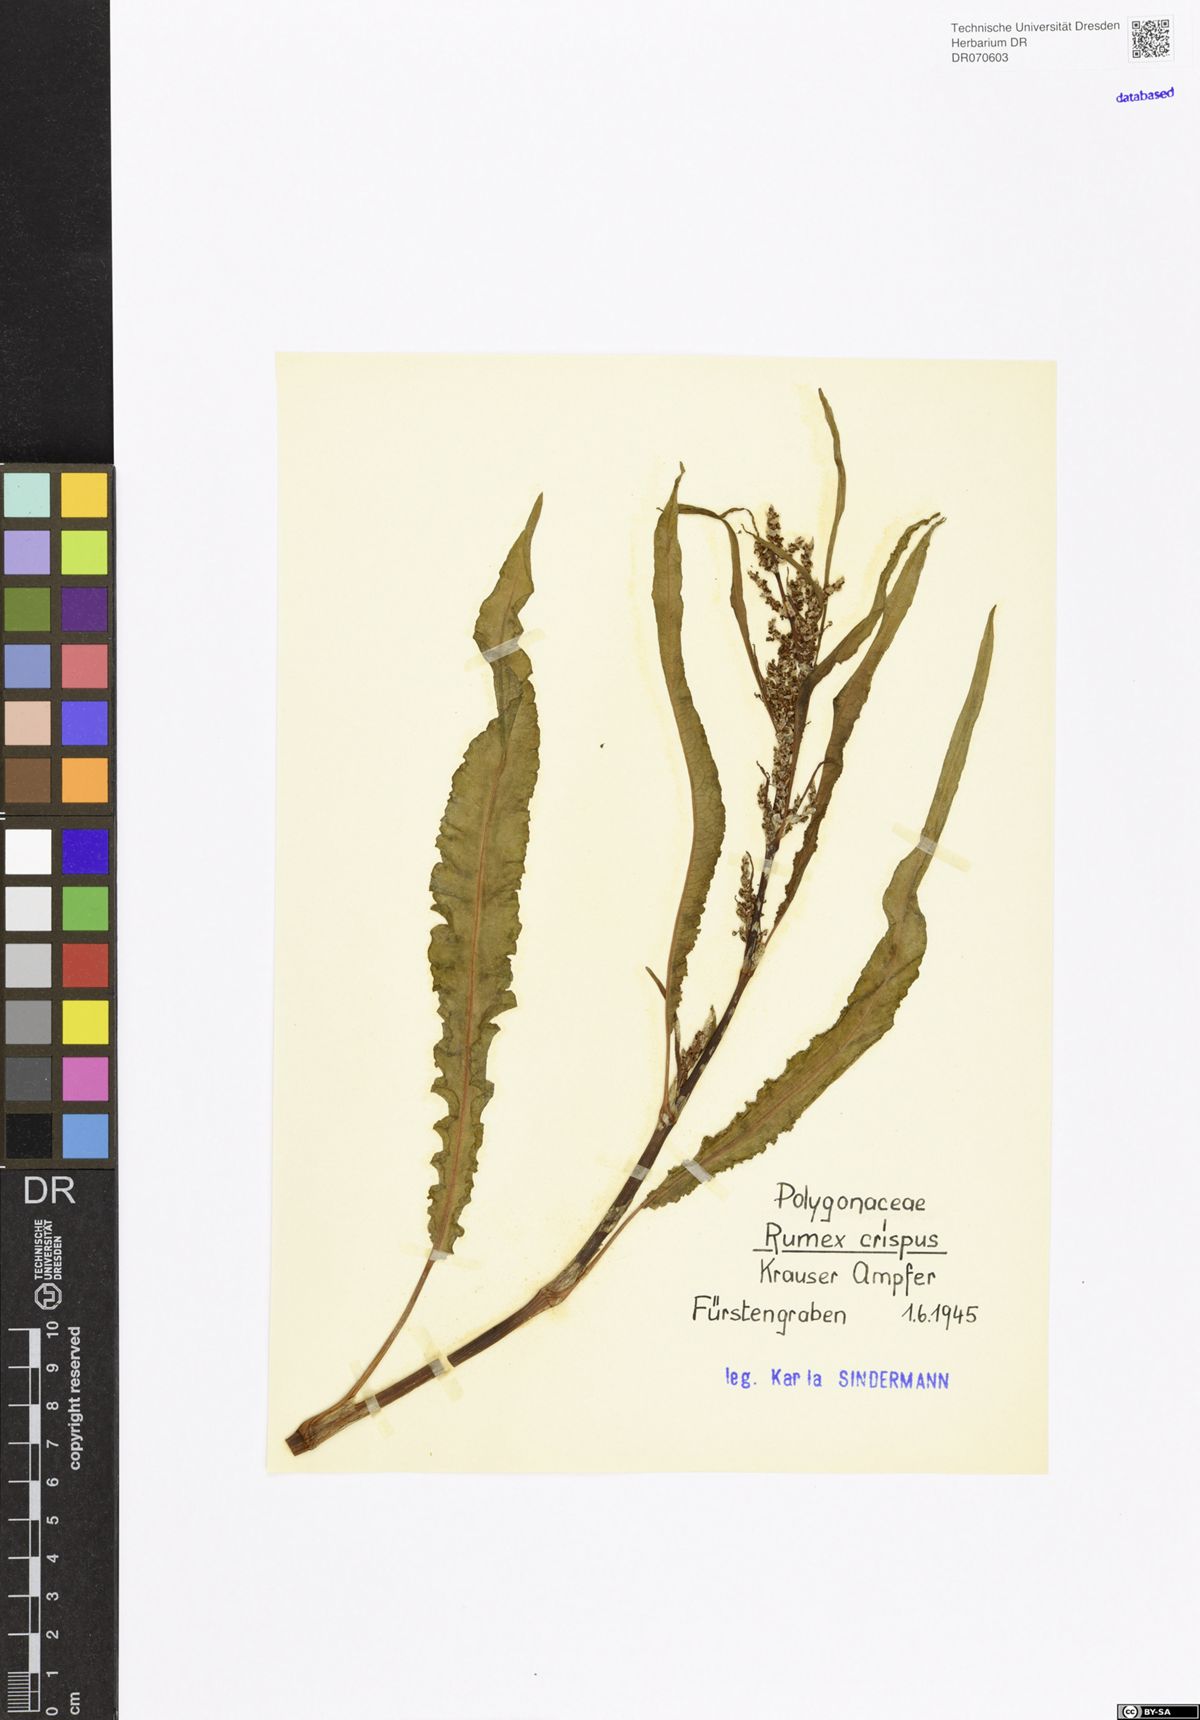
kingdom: Plantae
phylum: Tracheophyta
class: Magnoliopsida
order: Caryophyllales
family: Polygonaceae
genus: Rumex
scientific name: Rumex crispus
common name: Curled dock
